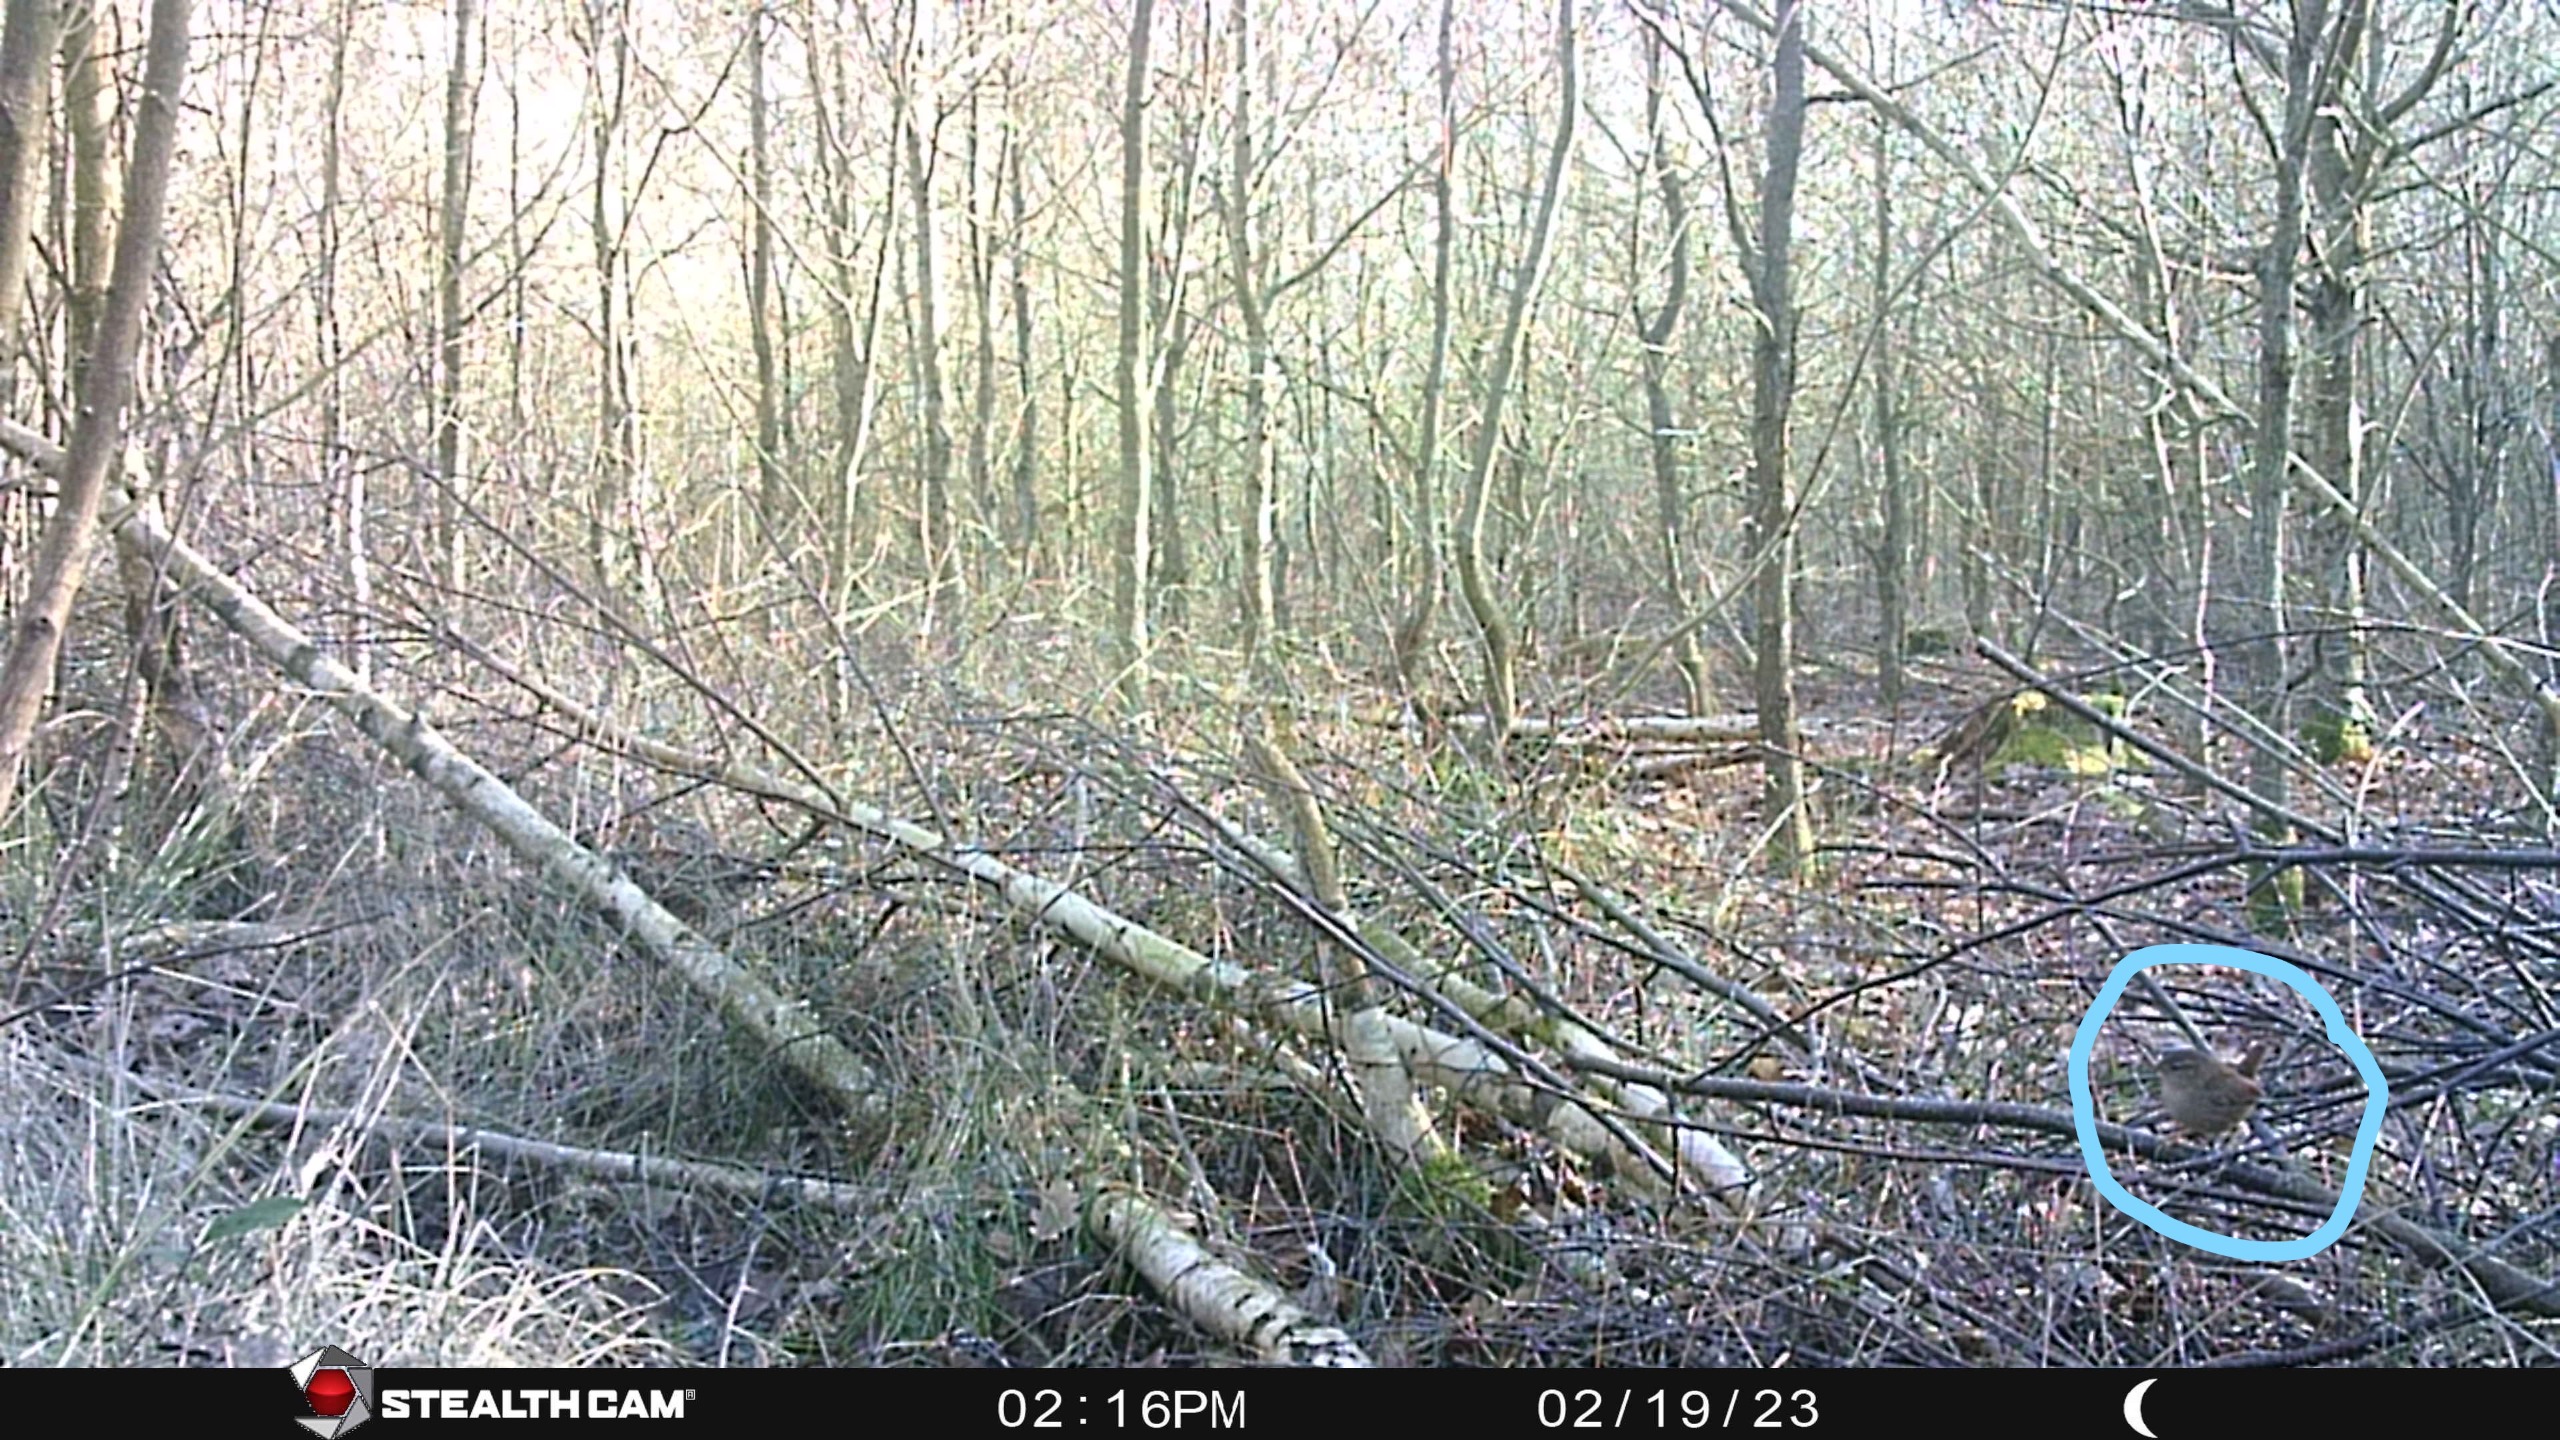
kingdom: Animalia
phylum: Chordata
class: Aves
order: Passeriformes
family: Troglodytidae
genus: Troglodytes
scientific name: Troglodytes troglodytes
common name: Gærdesmutte
